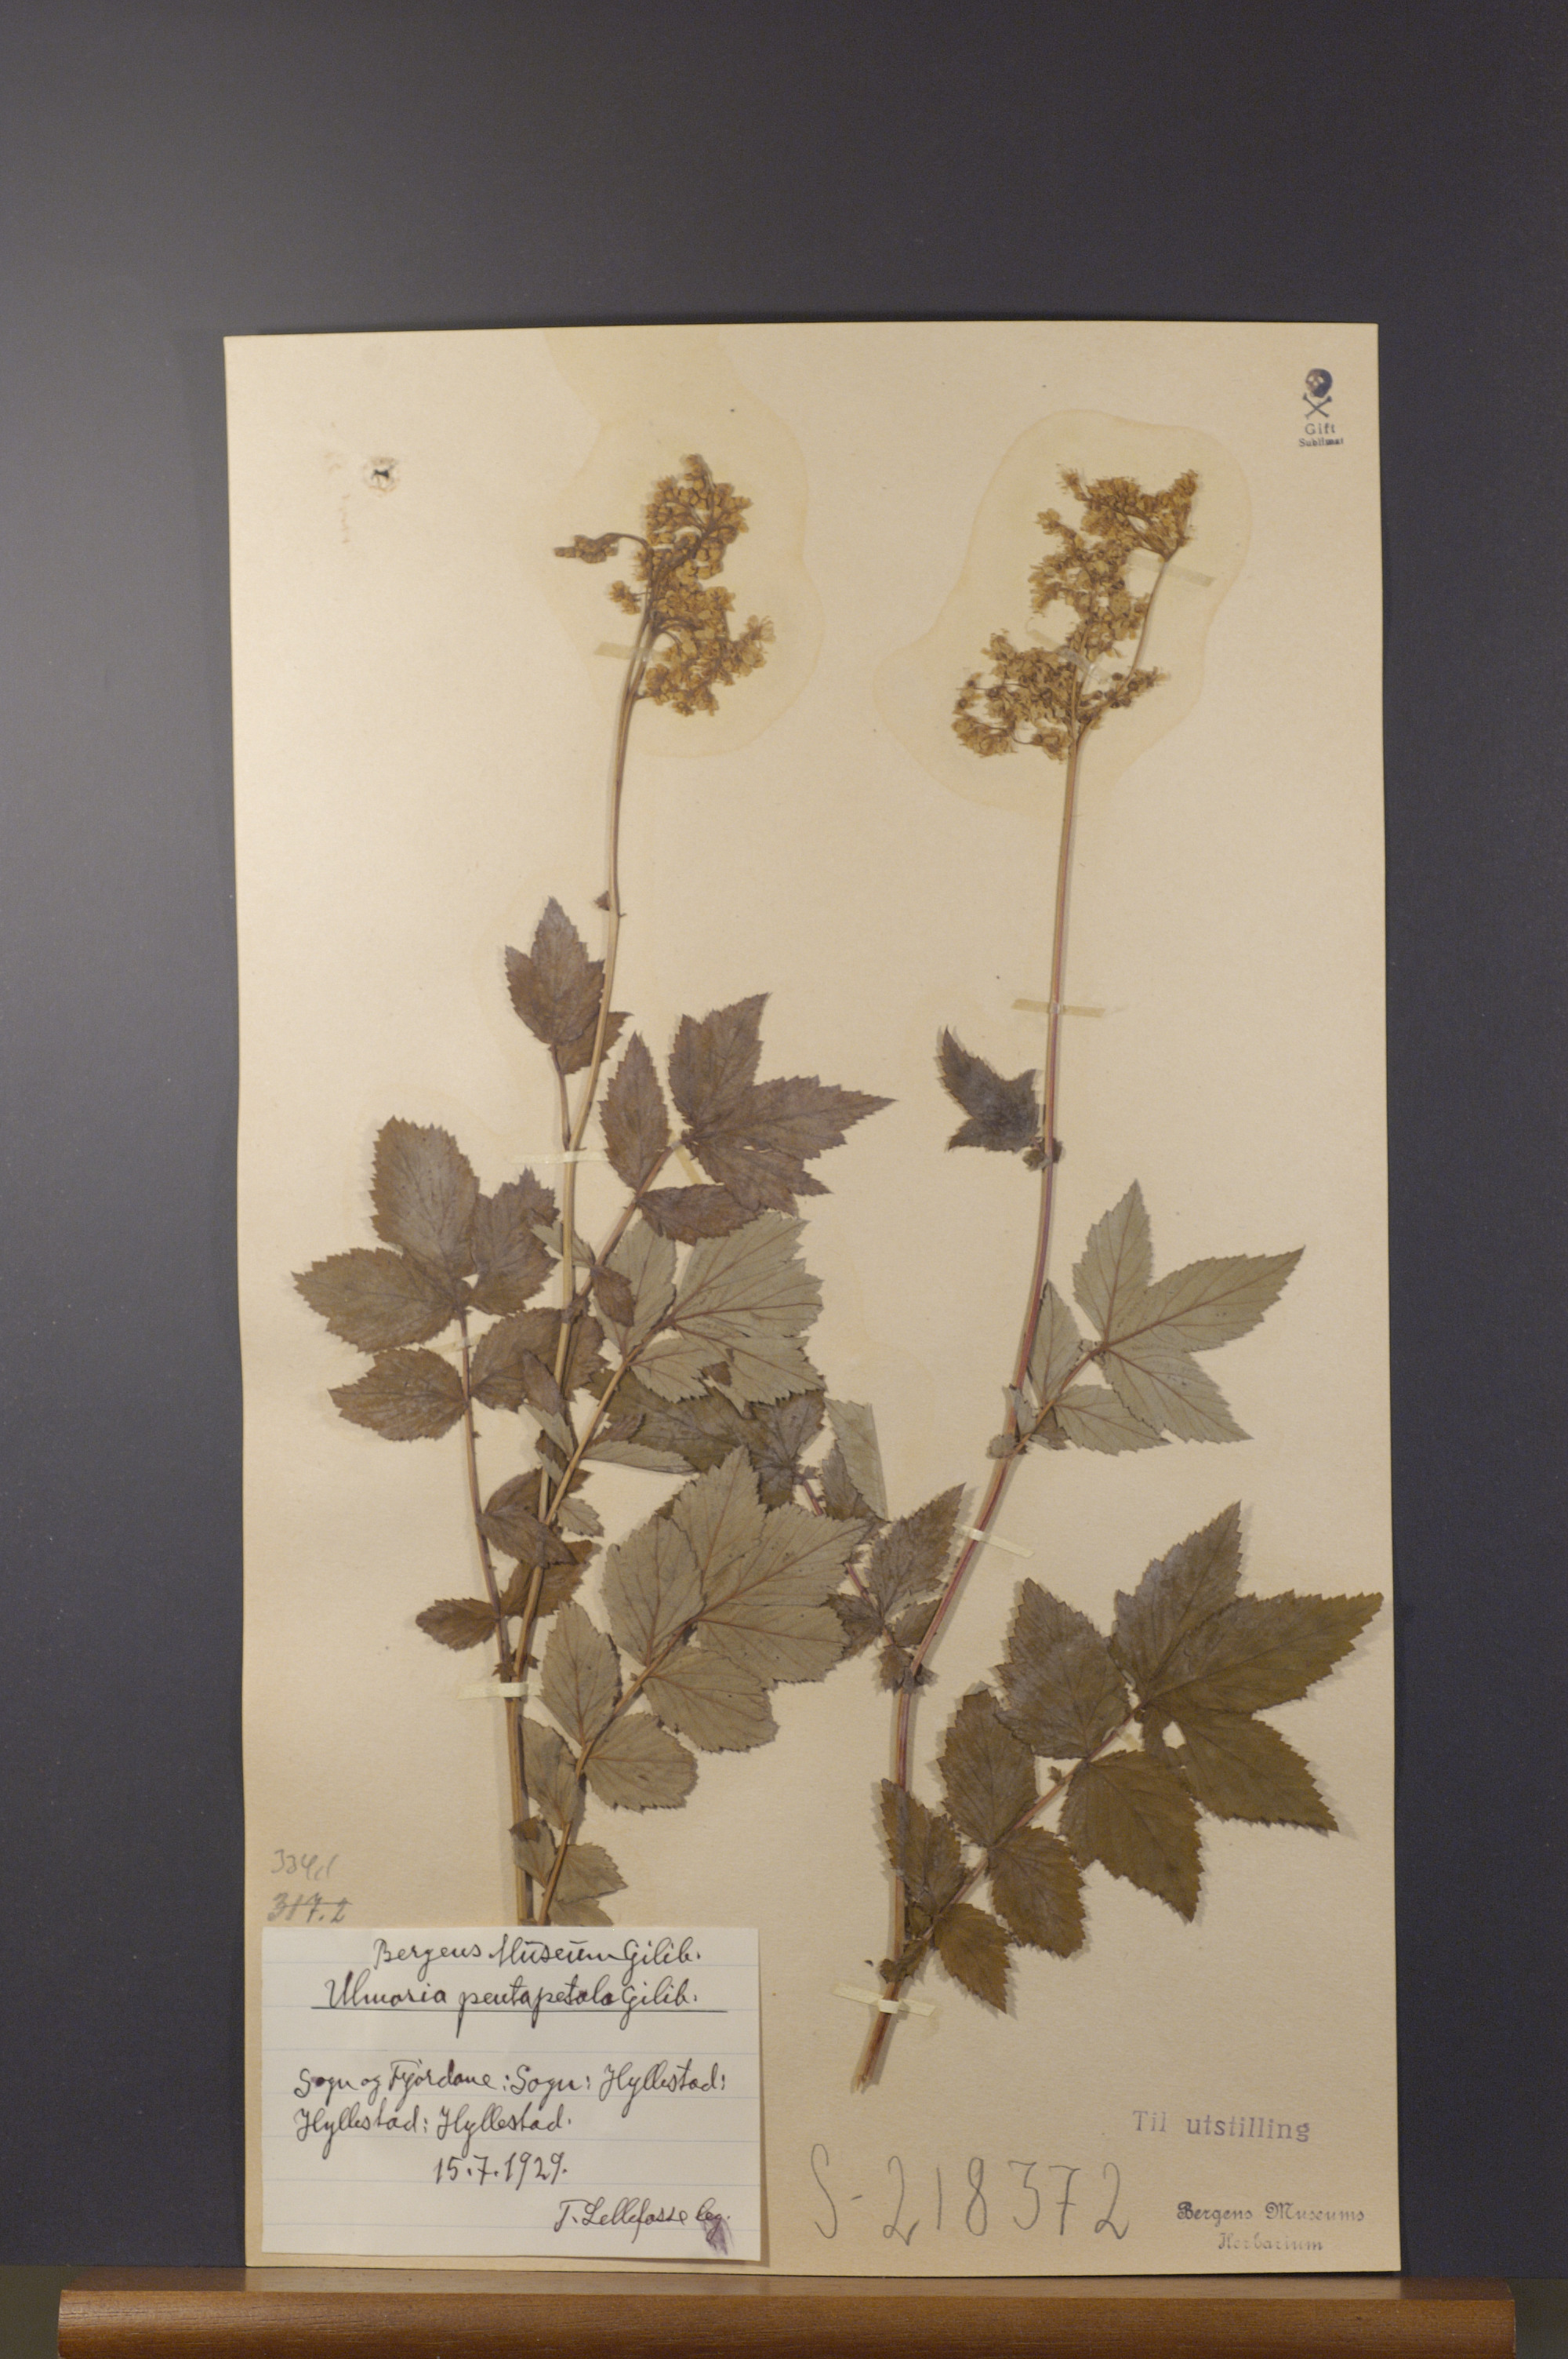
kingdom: Plantae
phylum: Tracheophyta
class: Magnoliopsida
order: Rosales
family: Rosaceae
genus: Filipendula
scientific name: Filipendula ulmaria
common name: Meadowsweet
